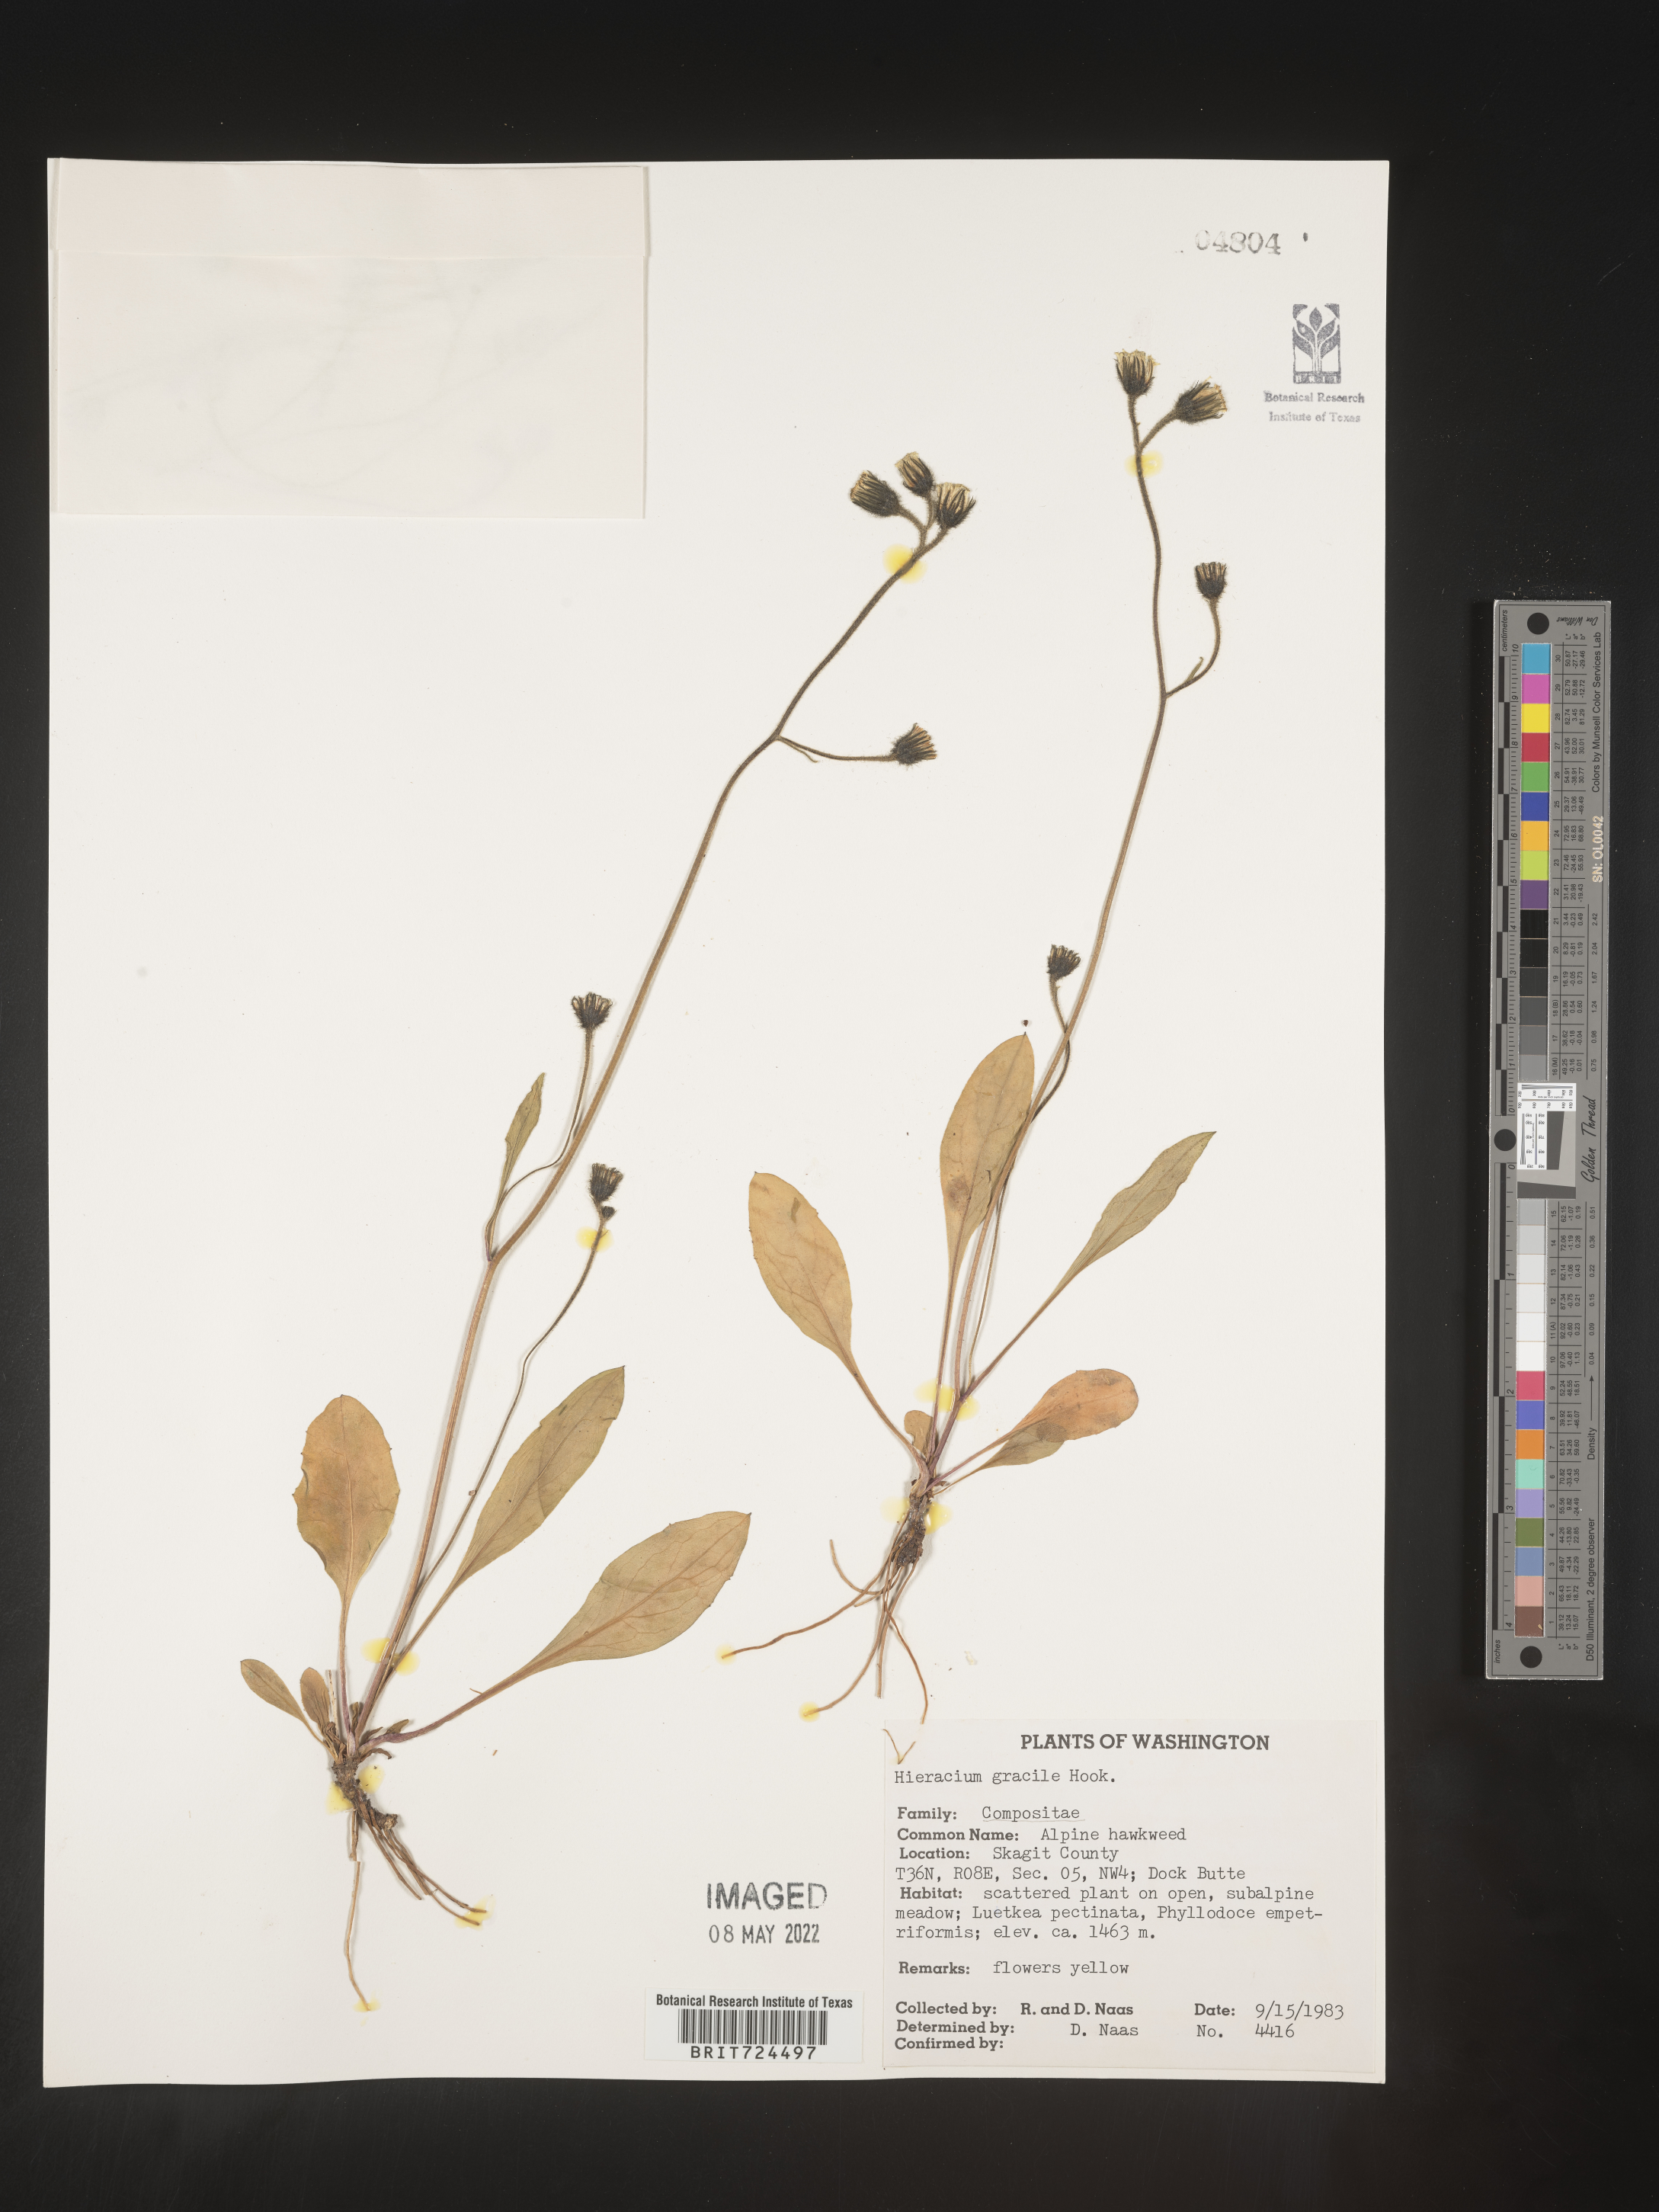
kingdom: Plantae
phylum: Tracheophyta
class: Magnoliopsida
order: Asterales
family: Asteraceae
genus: Hieracium
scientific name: Hieracium
